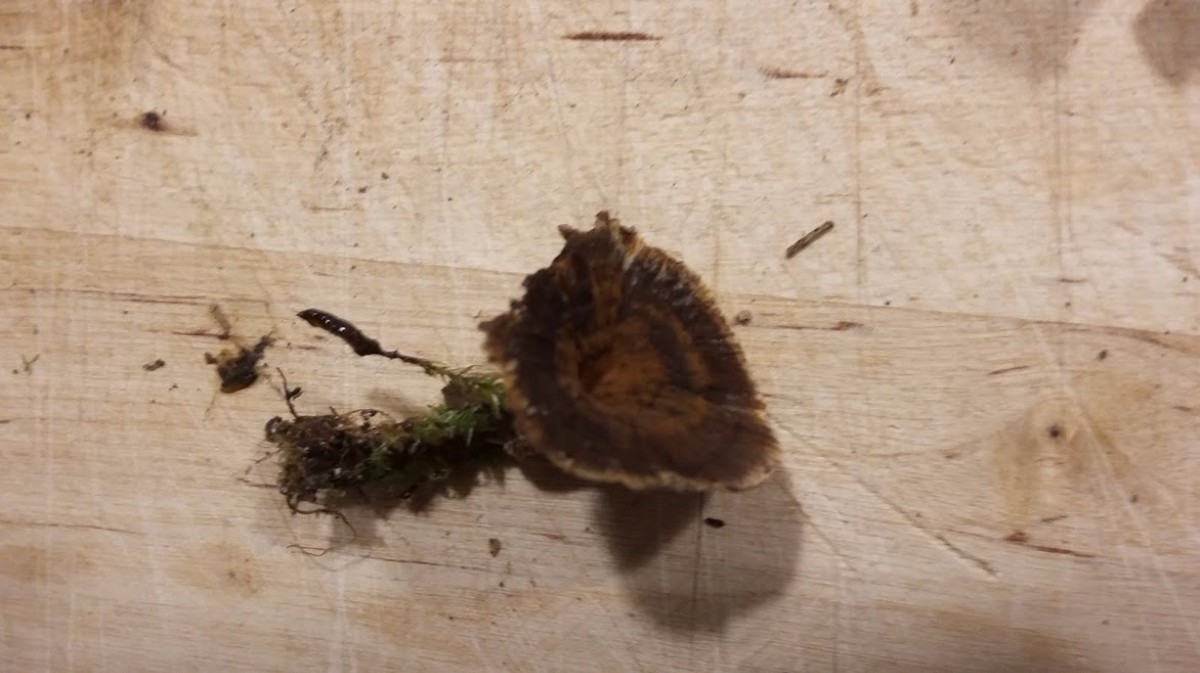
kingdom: Fungi
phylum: Basidiomycota
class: Agaricomycetes
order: Hymenochaetales
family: Hymenochaetaceae
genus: Coltricia
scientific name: Coltricia
